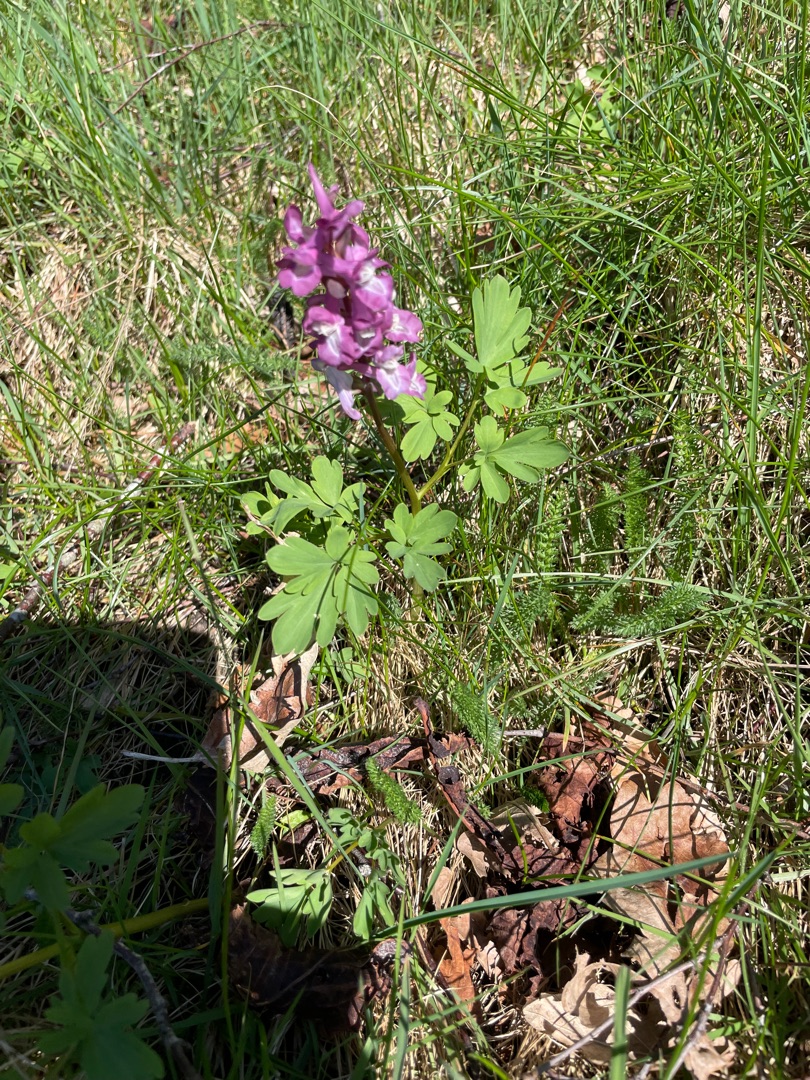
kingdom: Plantae
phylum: Tracheophyta
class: Magnoliopsida
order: Ranunculales
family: Papaveraceae
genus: Corydalis
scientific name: Corydalis cava
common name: Hulrodet lærkespore
